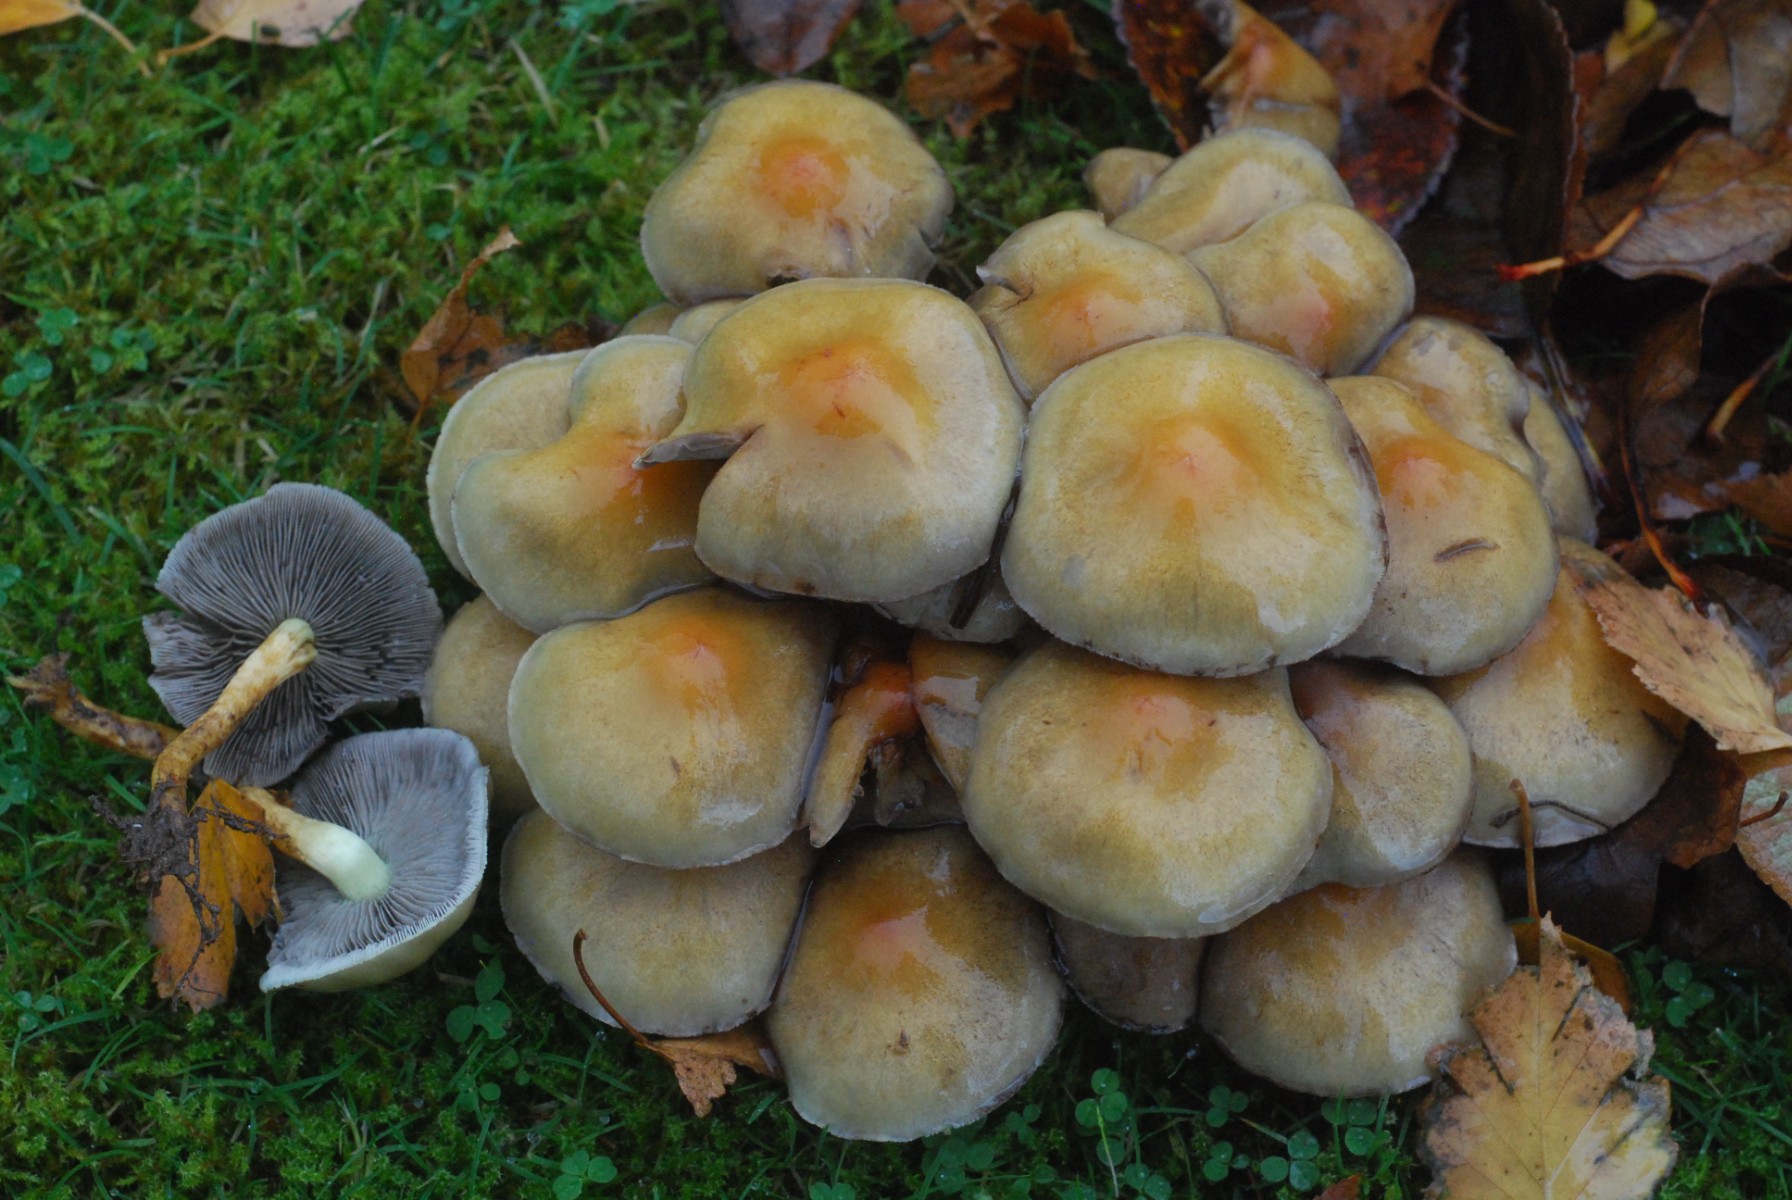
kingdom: Fungi
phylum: Basidiomycota
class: Agaricomycetes
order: Agaricales
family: Strophariaceae
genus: Hypholoma
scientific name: Hypholoma fasciculare
